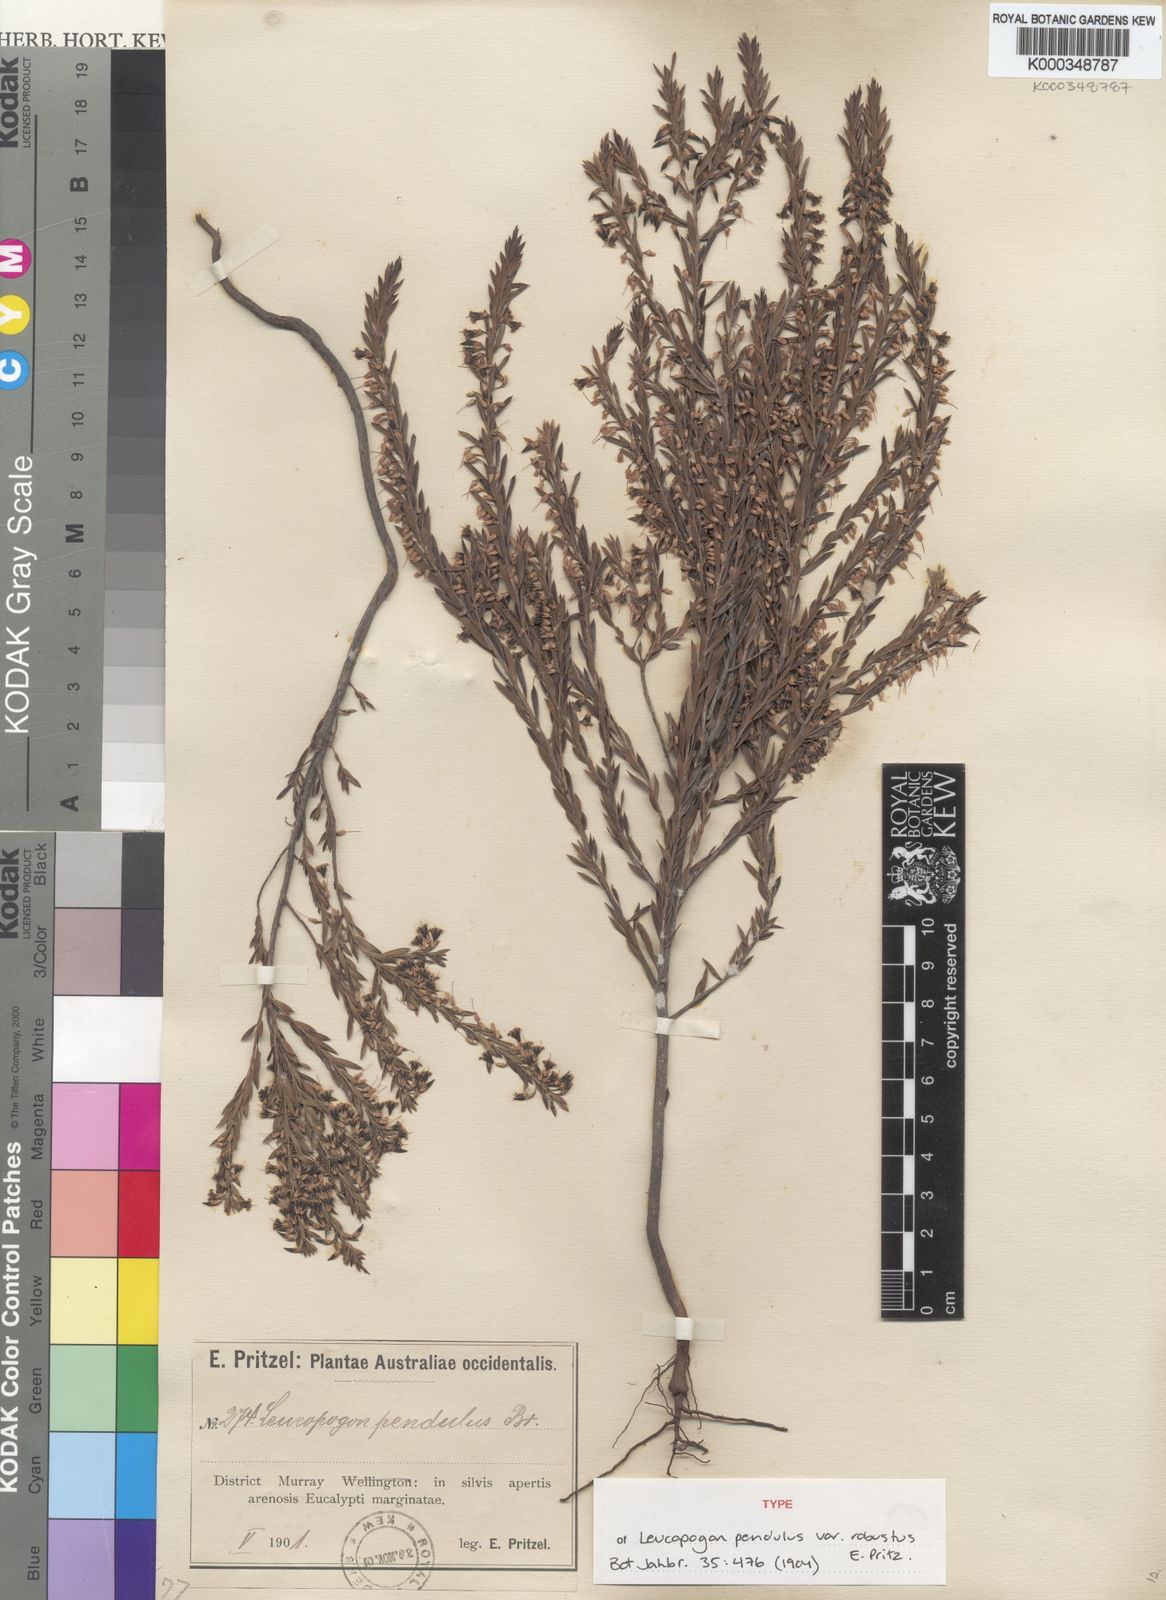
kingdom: Plantae
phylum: Tracheophyta
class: Magnoliopsida
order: Ericales
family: Ericaceae
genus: Styphelia
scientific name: Styphelia pendula
